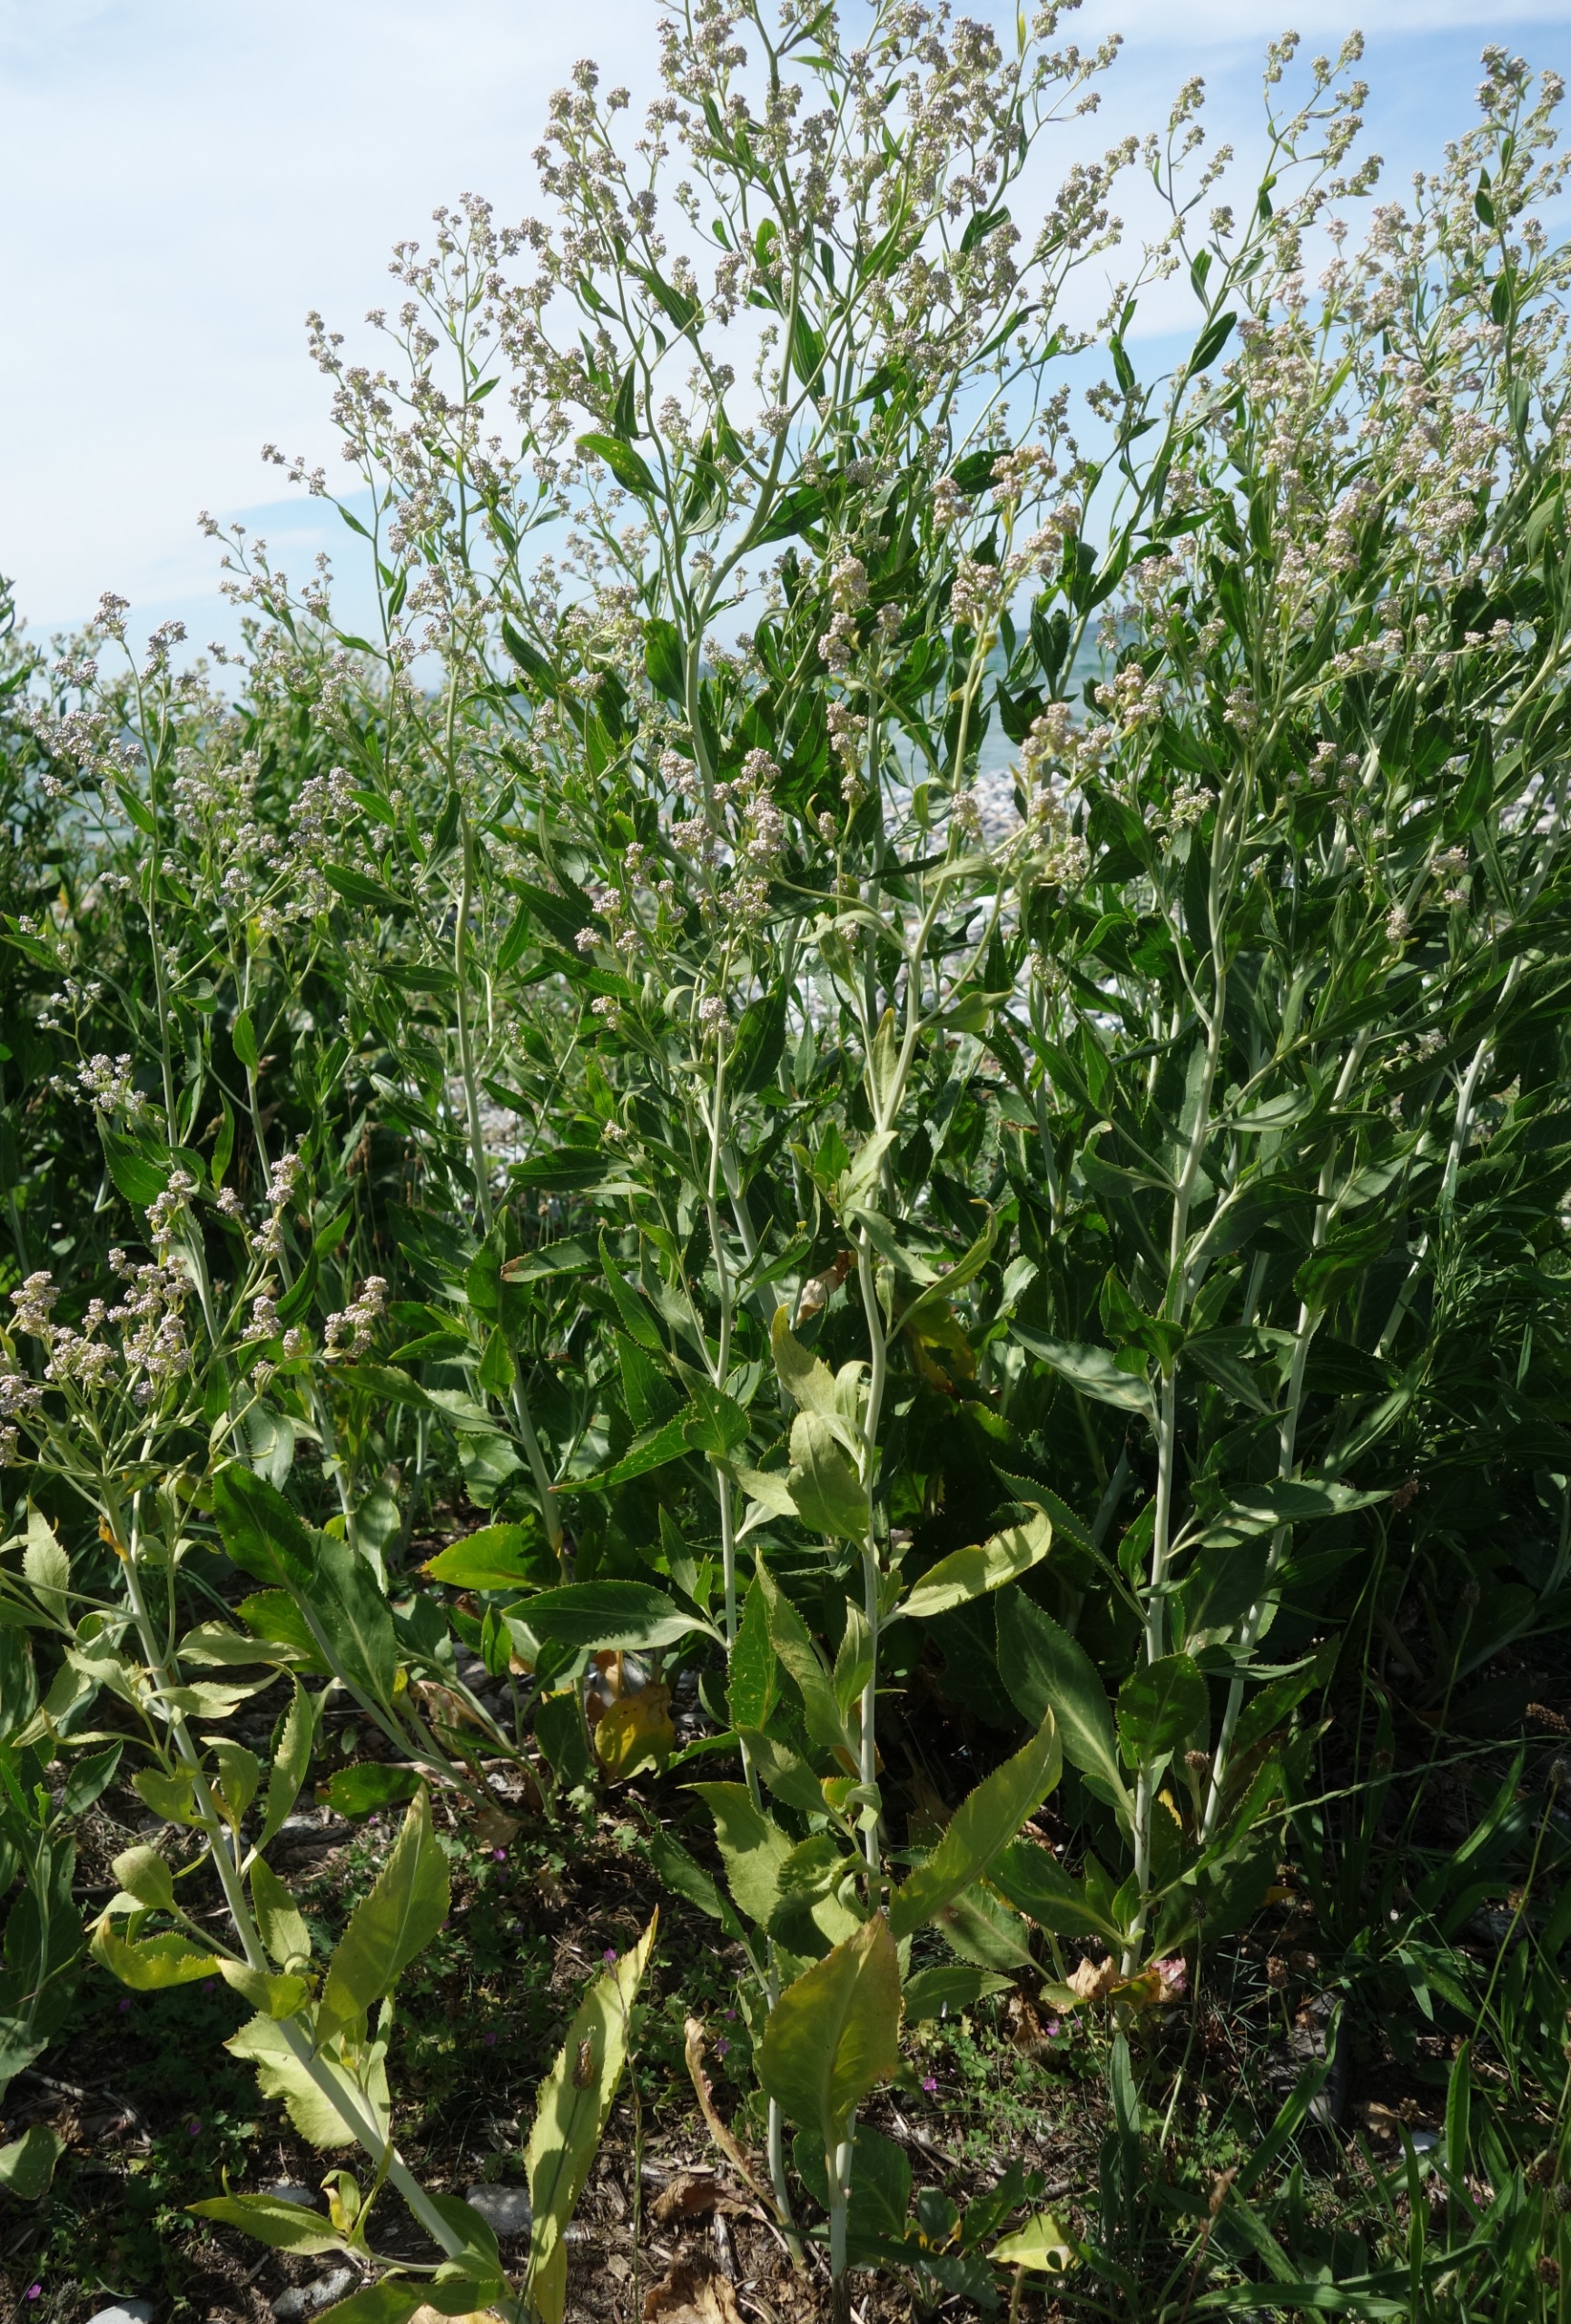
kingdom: Plantae
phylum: Tracheophyta
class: Magnoliopsida
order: Brassicales
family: Brassicaceae
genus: Lepidium
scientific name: Lepidium latifolium
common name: Strand-karse
